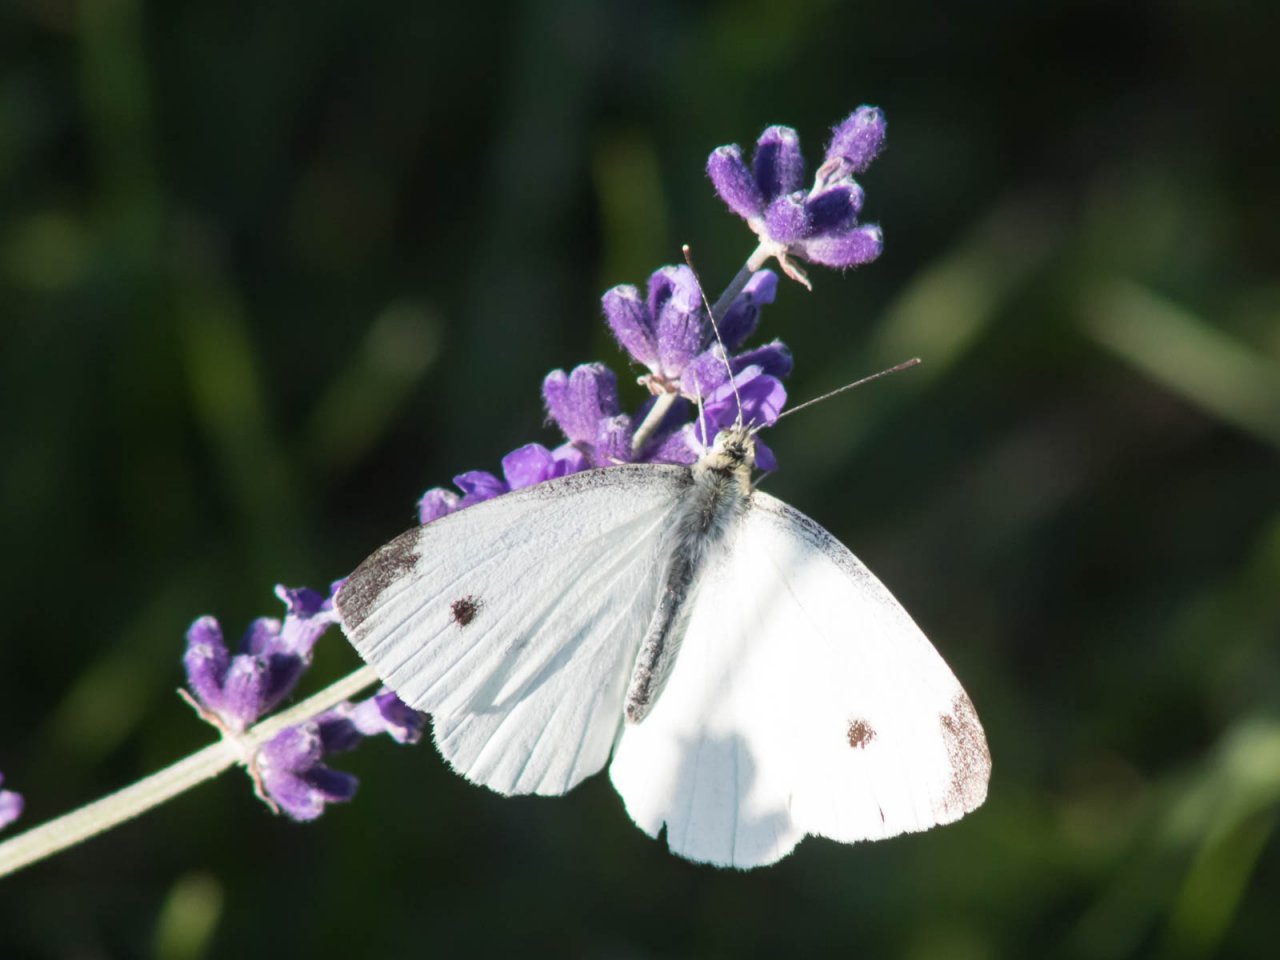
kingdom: Animalia
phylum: Arthropoda
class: Insecta
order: Lepidoptera
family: Pieridae
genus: Pieris
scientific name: Pieris rapae
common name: Cabbage White
